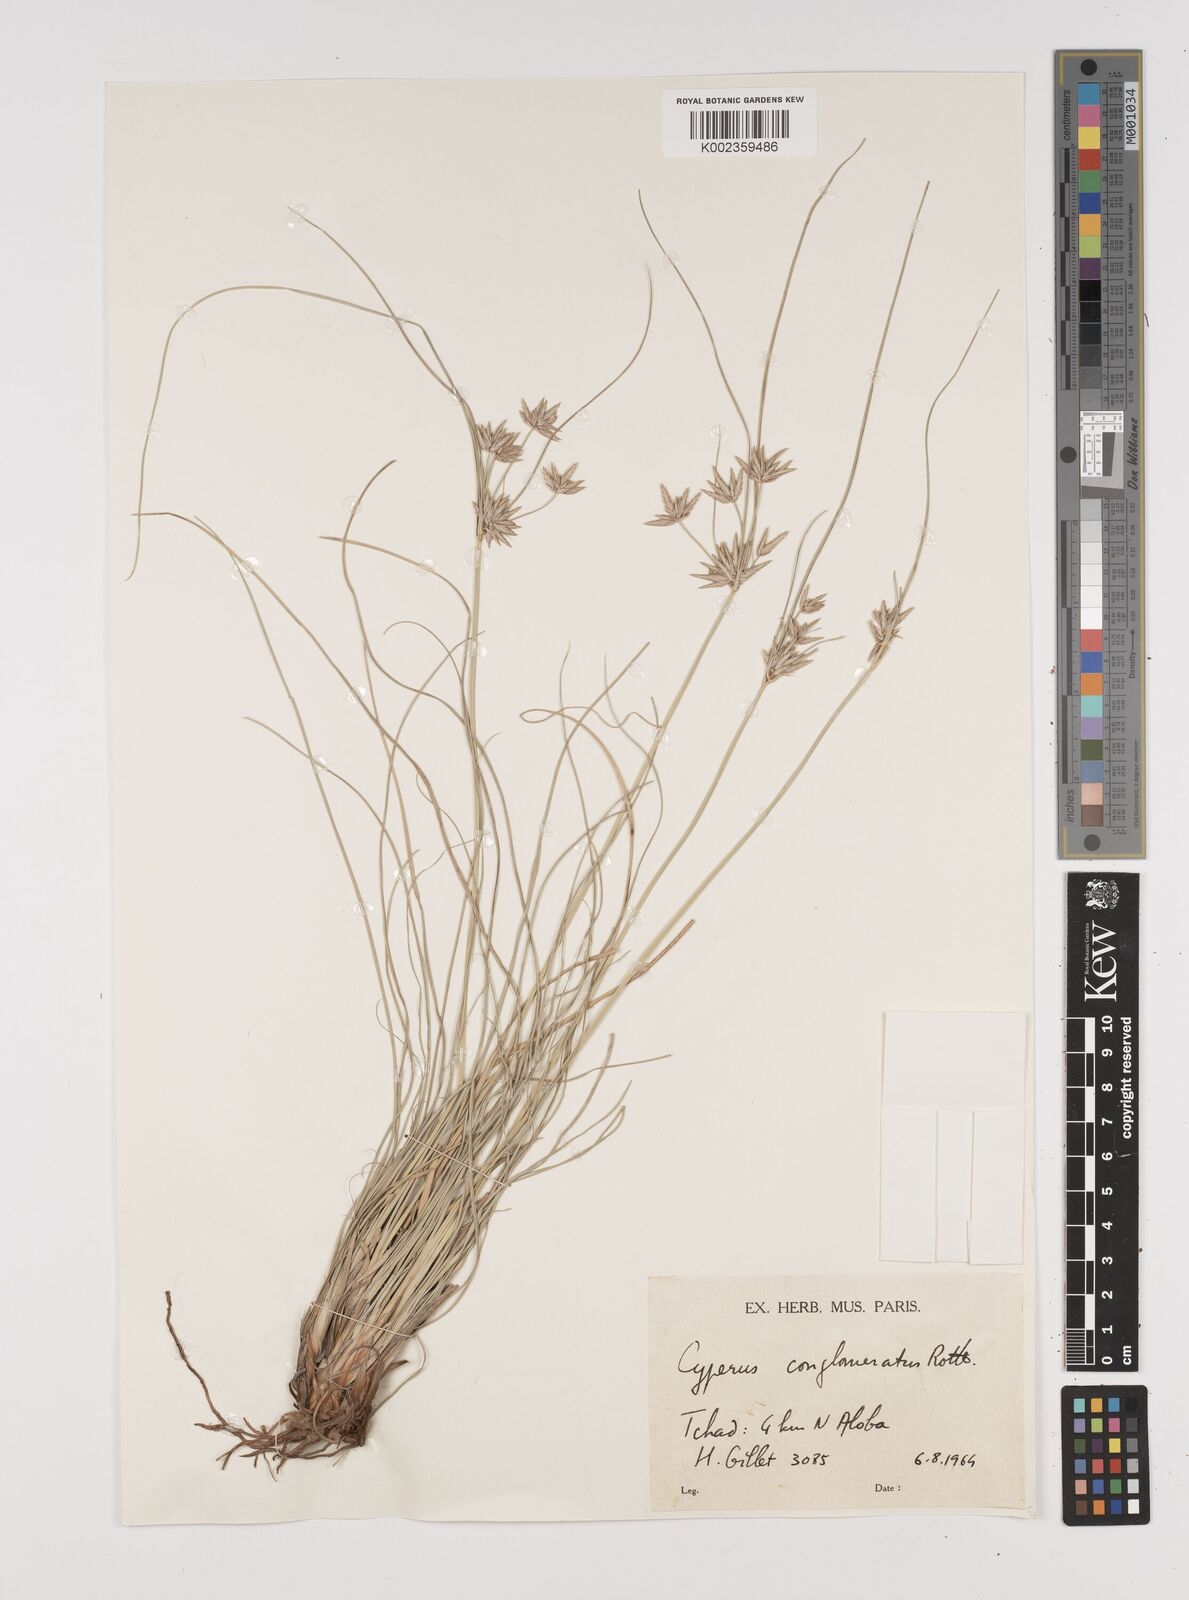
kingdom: Plantae
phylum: Tracheophyta
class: Liliopsida
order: Poales
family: Cyperaceae
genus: Cyperus
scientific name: Cyperus conglomeratus
